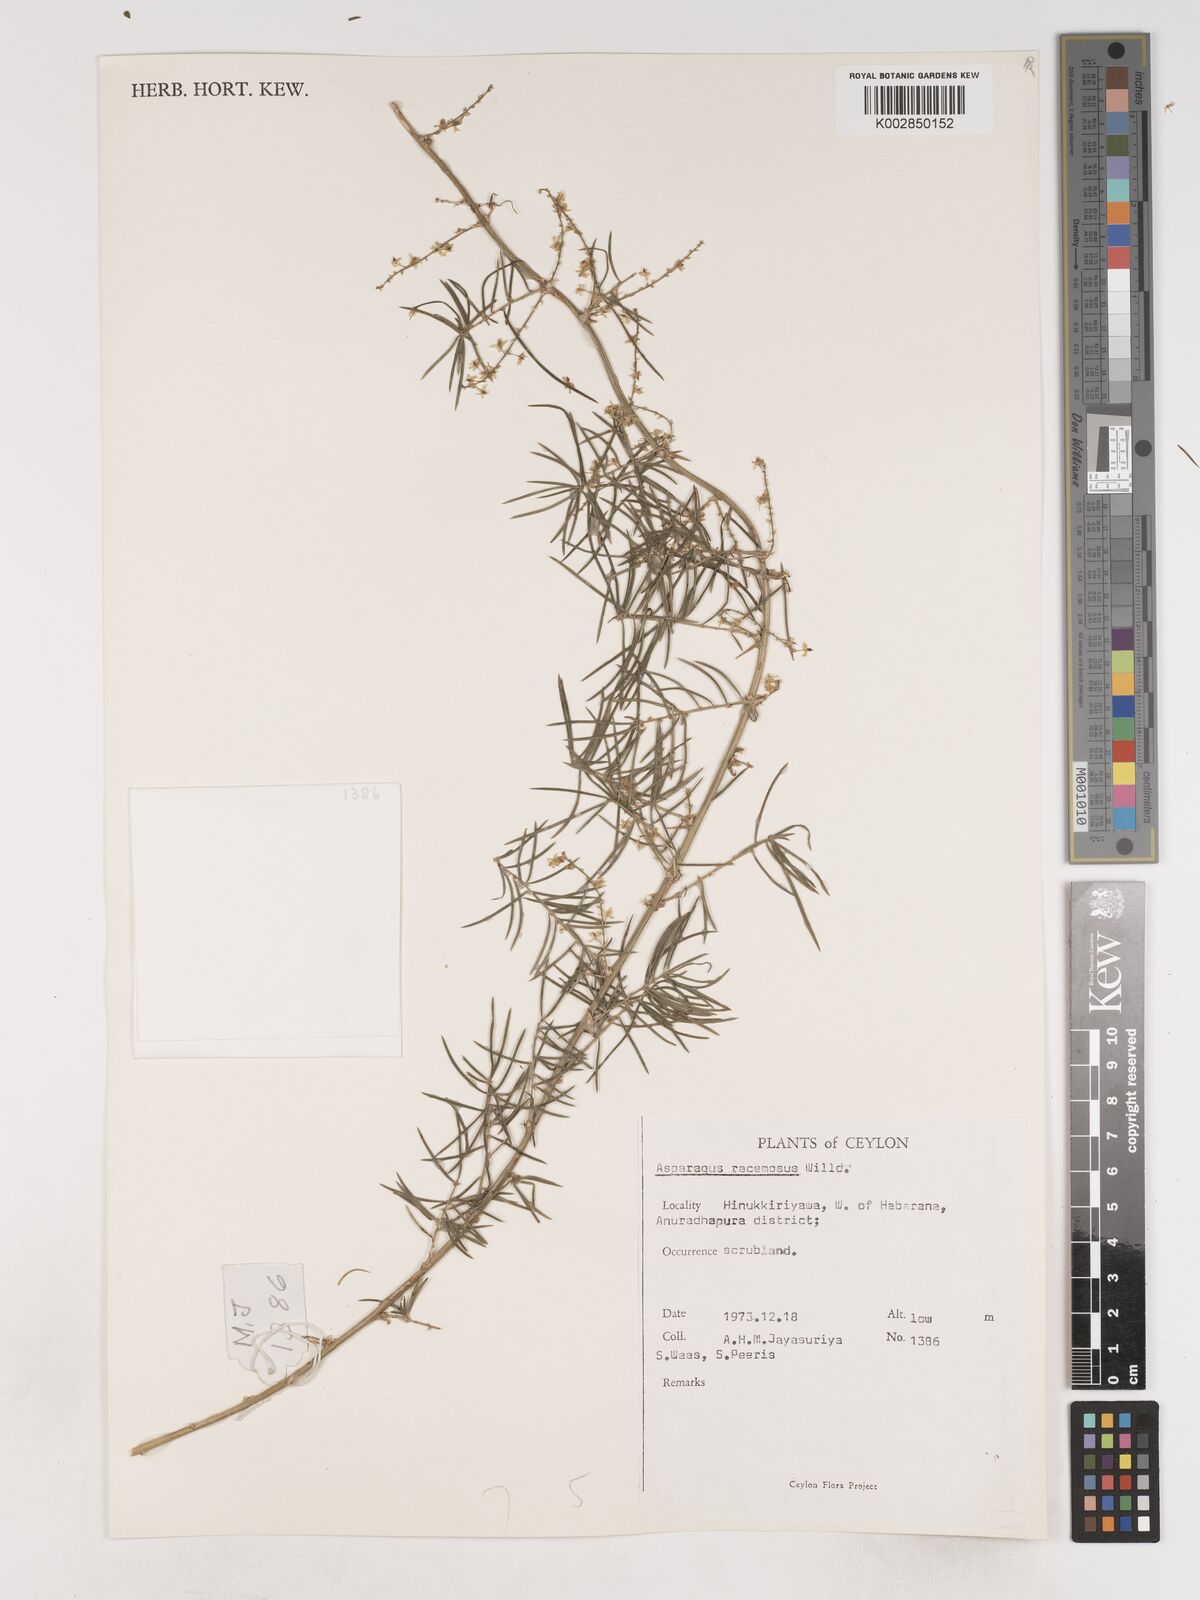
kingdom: Plantae
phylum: Tracheophyta
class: Liliopsida
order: Asparagales
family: Asparagaceae
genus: Asparagus
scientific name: Asparagus racemosus
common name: Asparagus-fern
